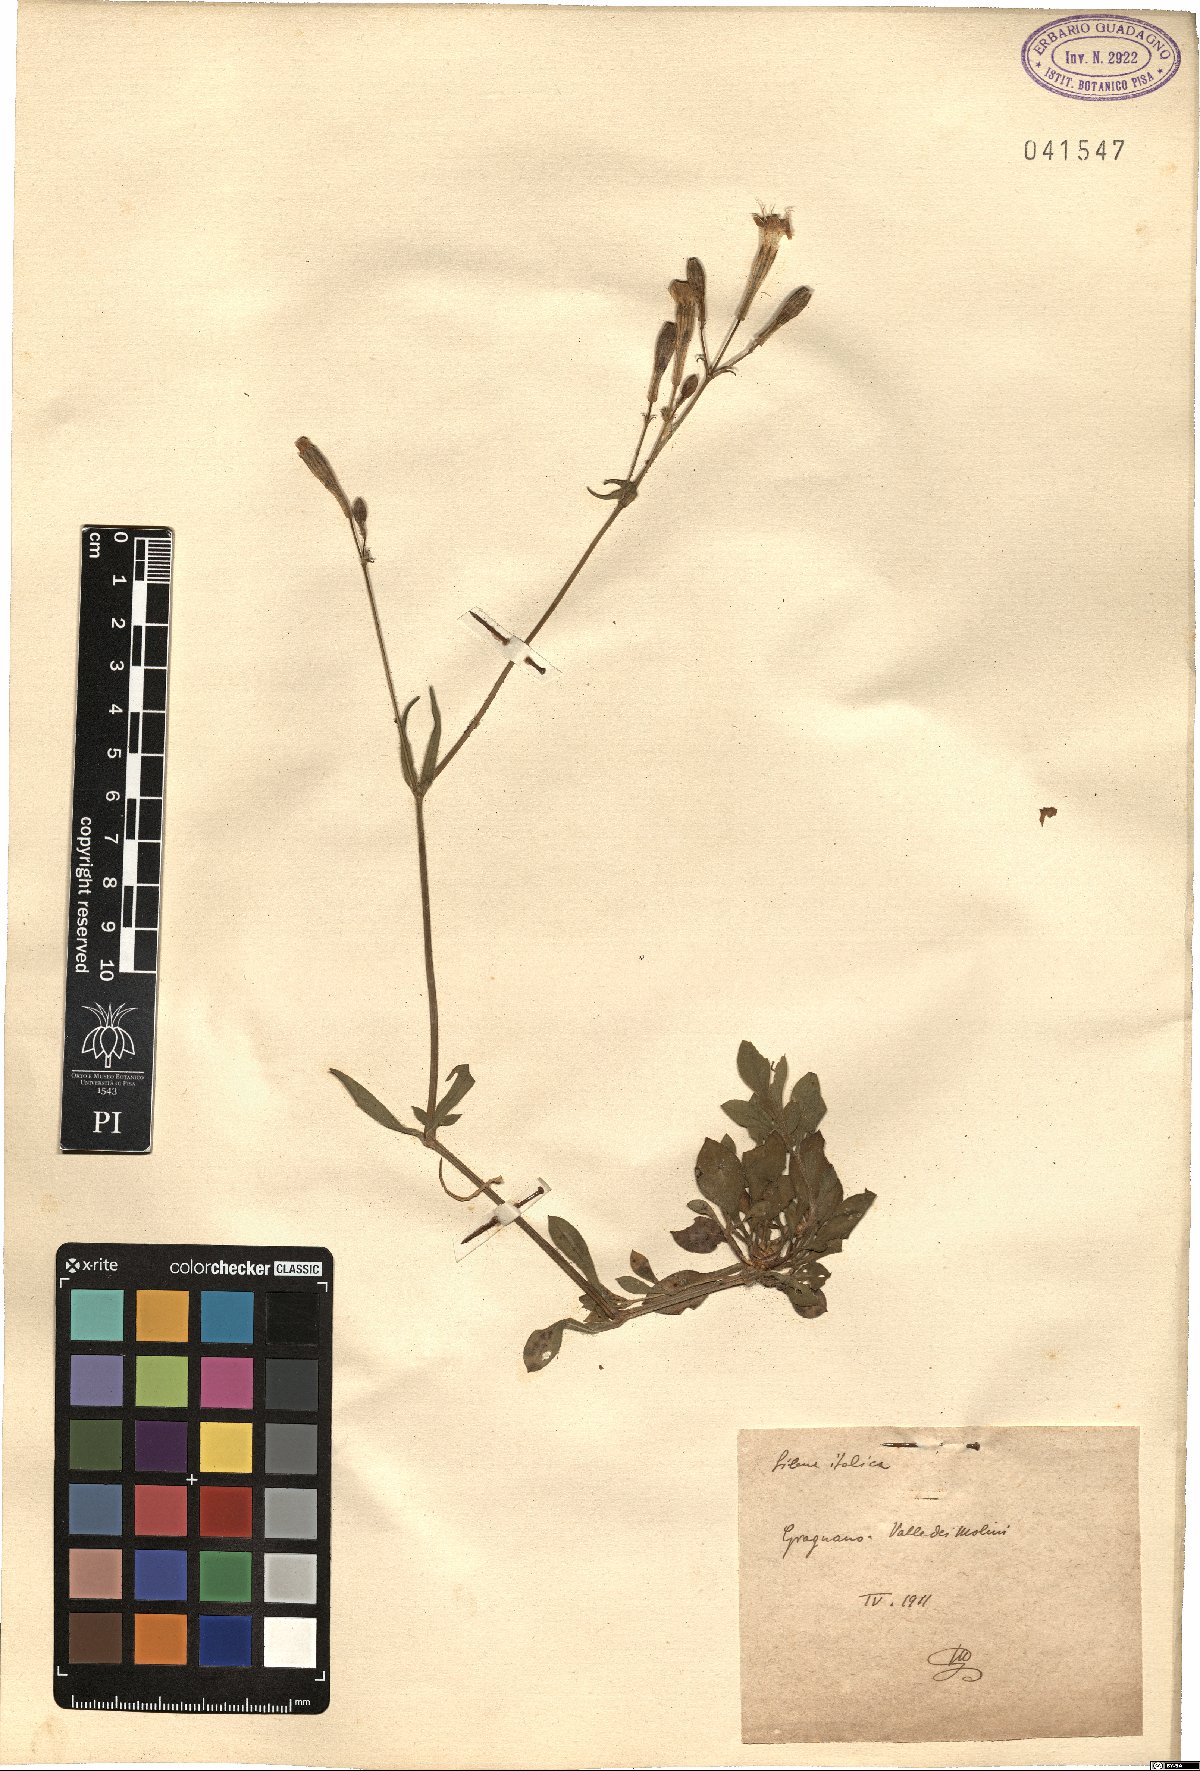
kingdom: Plantae
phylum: Tracheophyta
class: Magnoliopsida
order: Caryophyllales
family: Caryophyllaceae
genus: Silene
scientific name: Silene italica
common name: Italian catchfly
